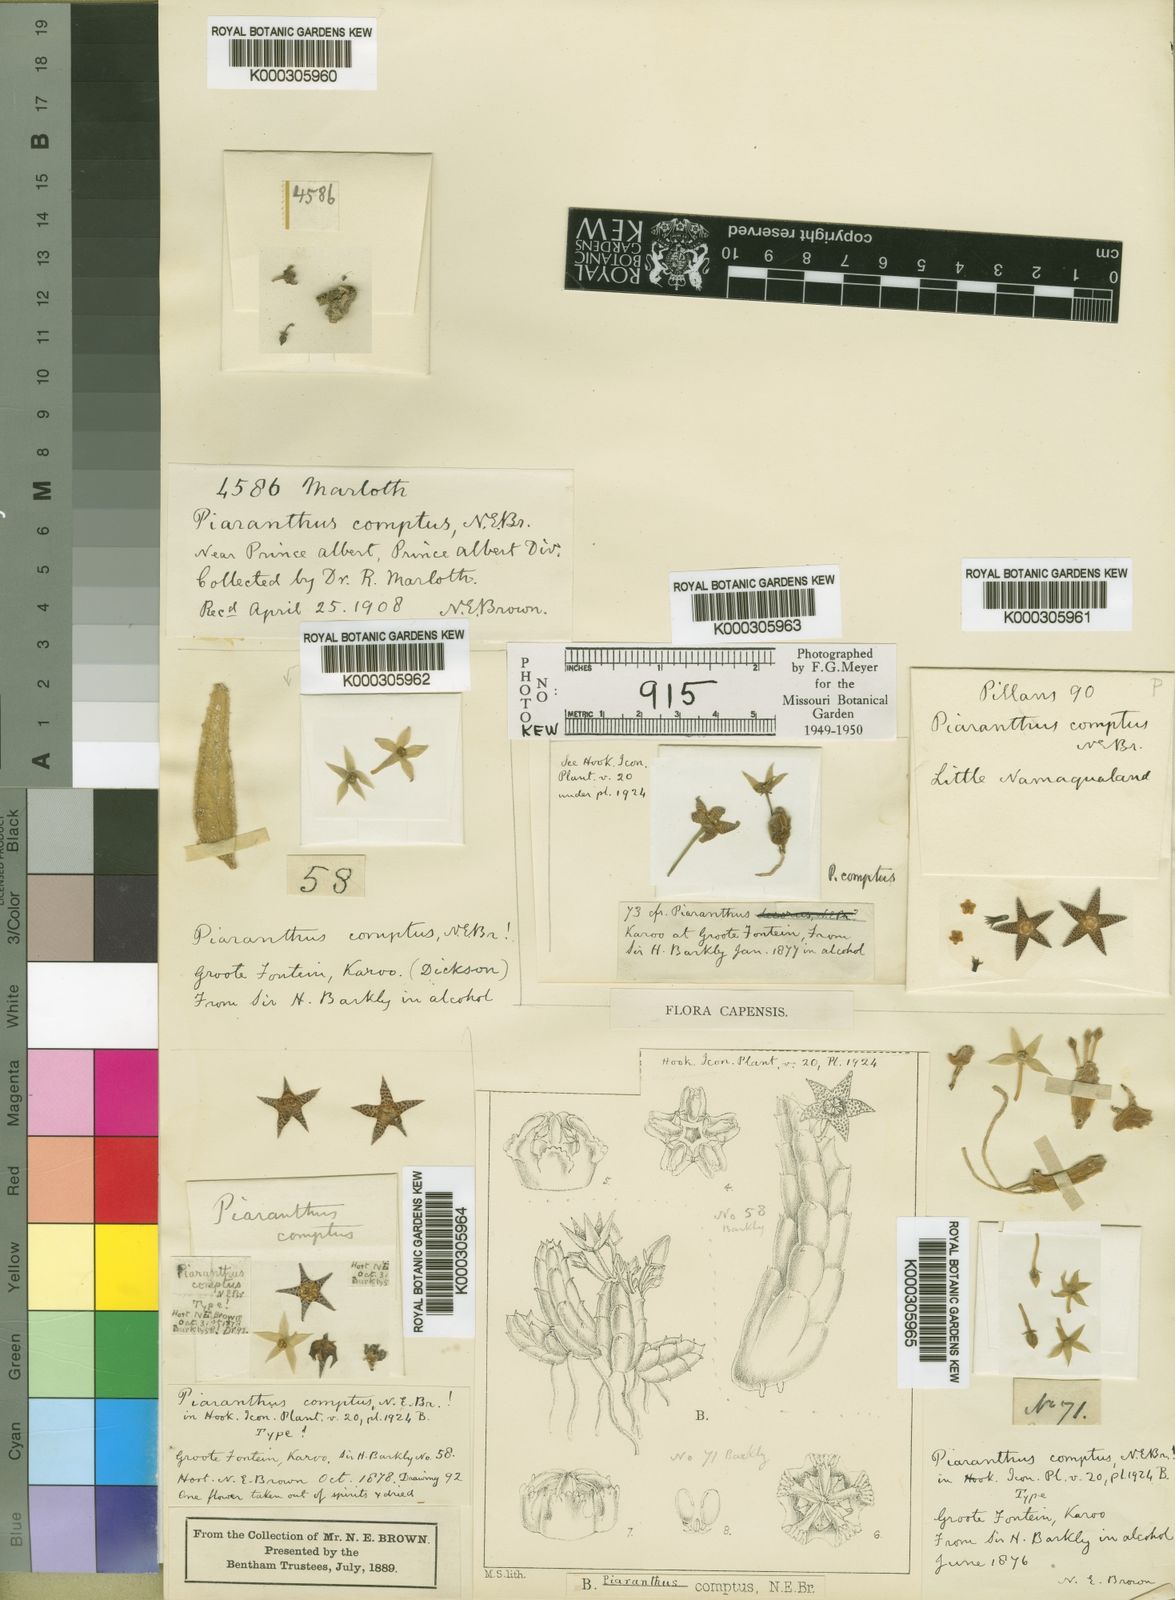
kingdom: Plantae
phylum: Tracheophyta
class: Magnoliopsida
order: Gentianales
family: Apocynaceae
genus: Ceropegia
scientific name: Ceropegia compta
